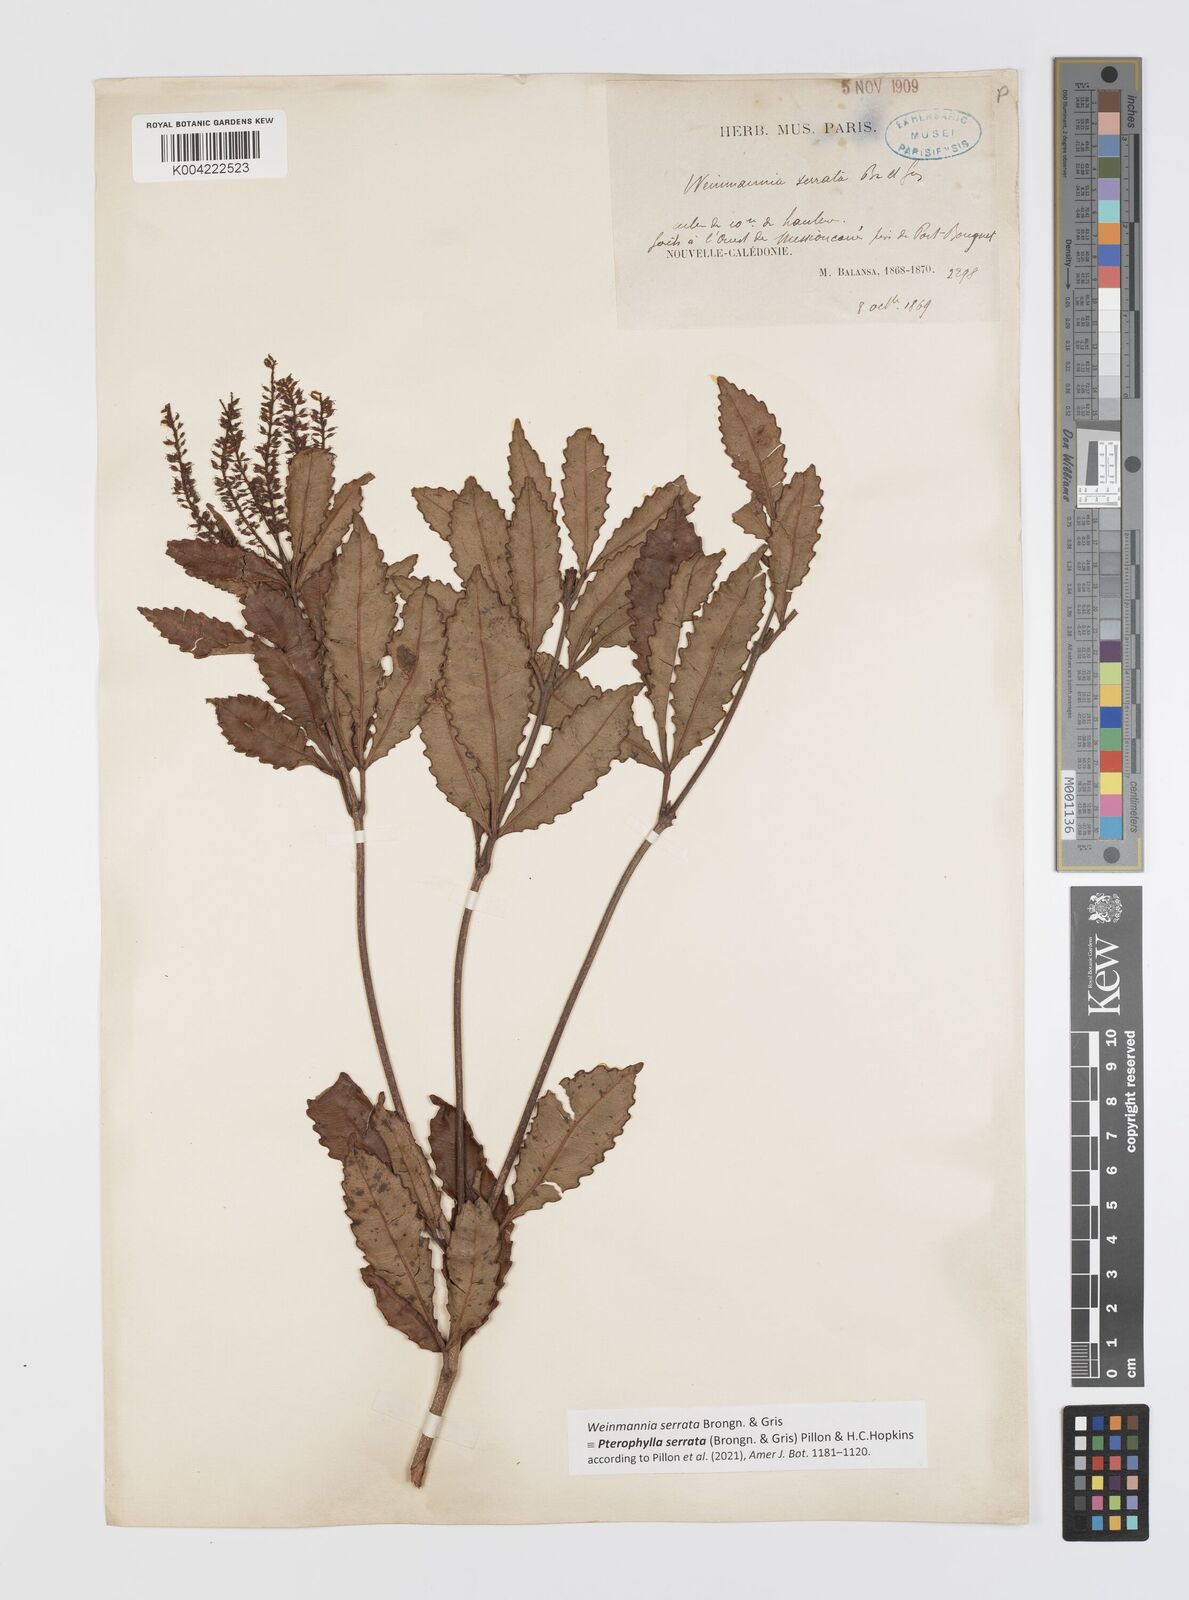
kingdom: Plantae
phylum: Tracheophyta
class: Magnoliopsida
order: Oxalidales
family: Cunoniaceae
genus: Pterophylla
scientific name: Pterophylla serrata
